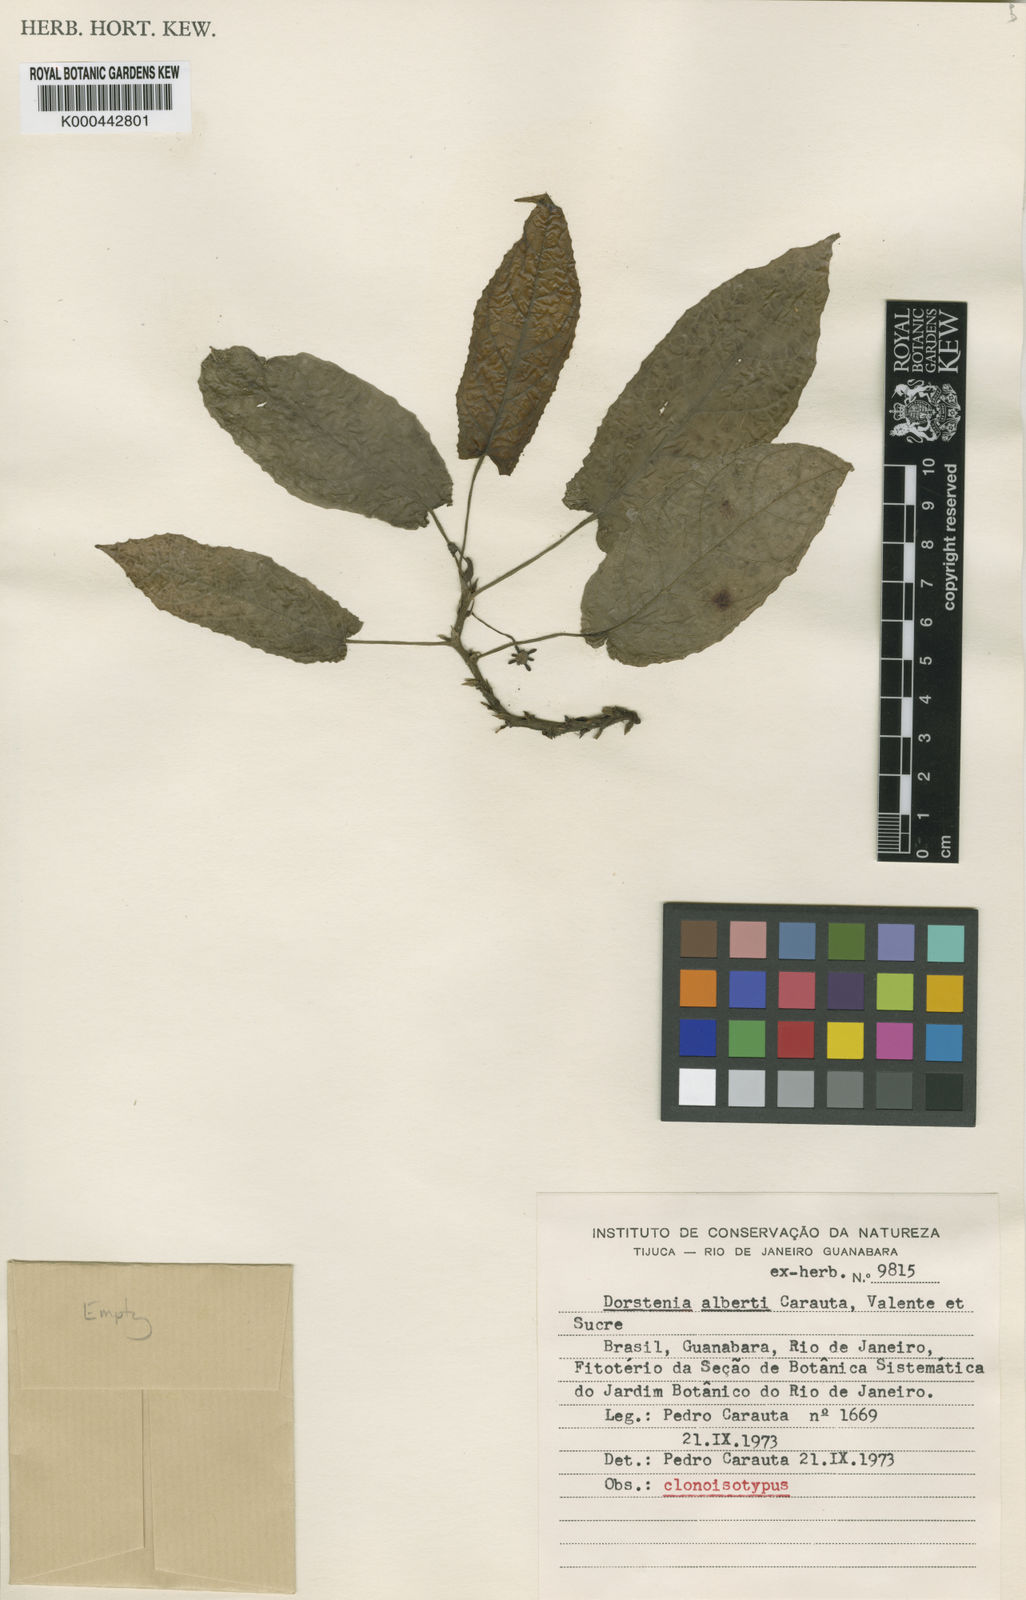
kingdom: Plantae
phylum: Tracheophyta
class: Magnoliopsida
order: Rosales
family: Moraceae
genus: Dorstenia
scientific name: Dorstenia
